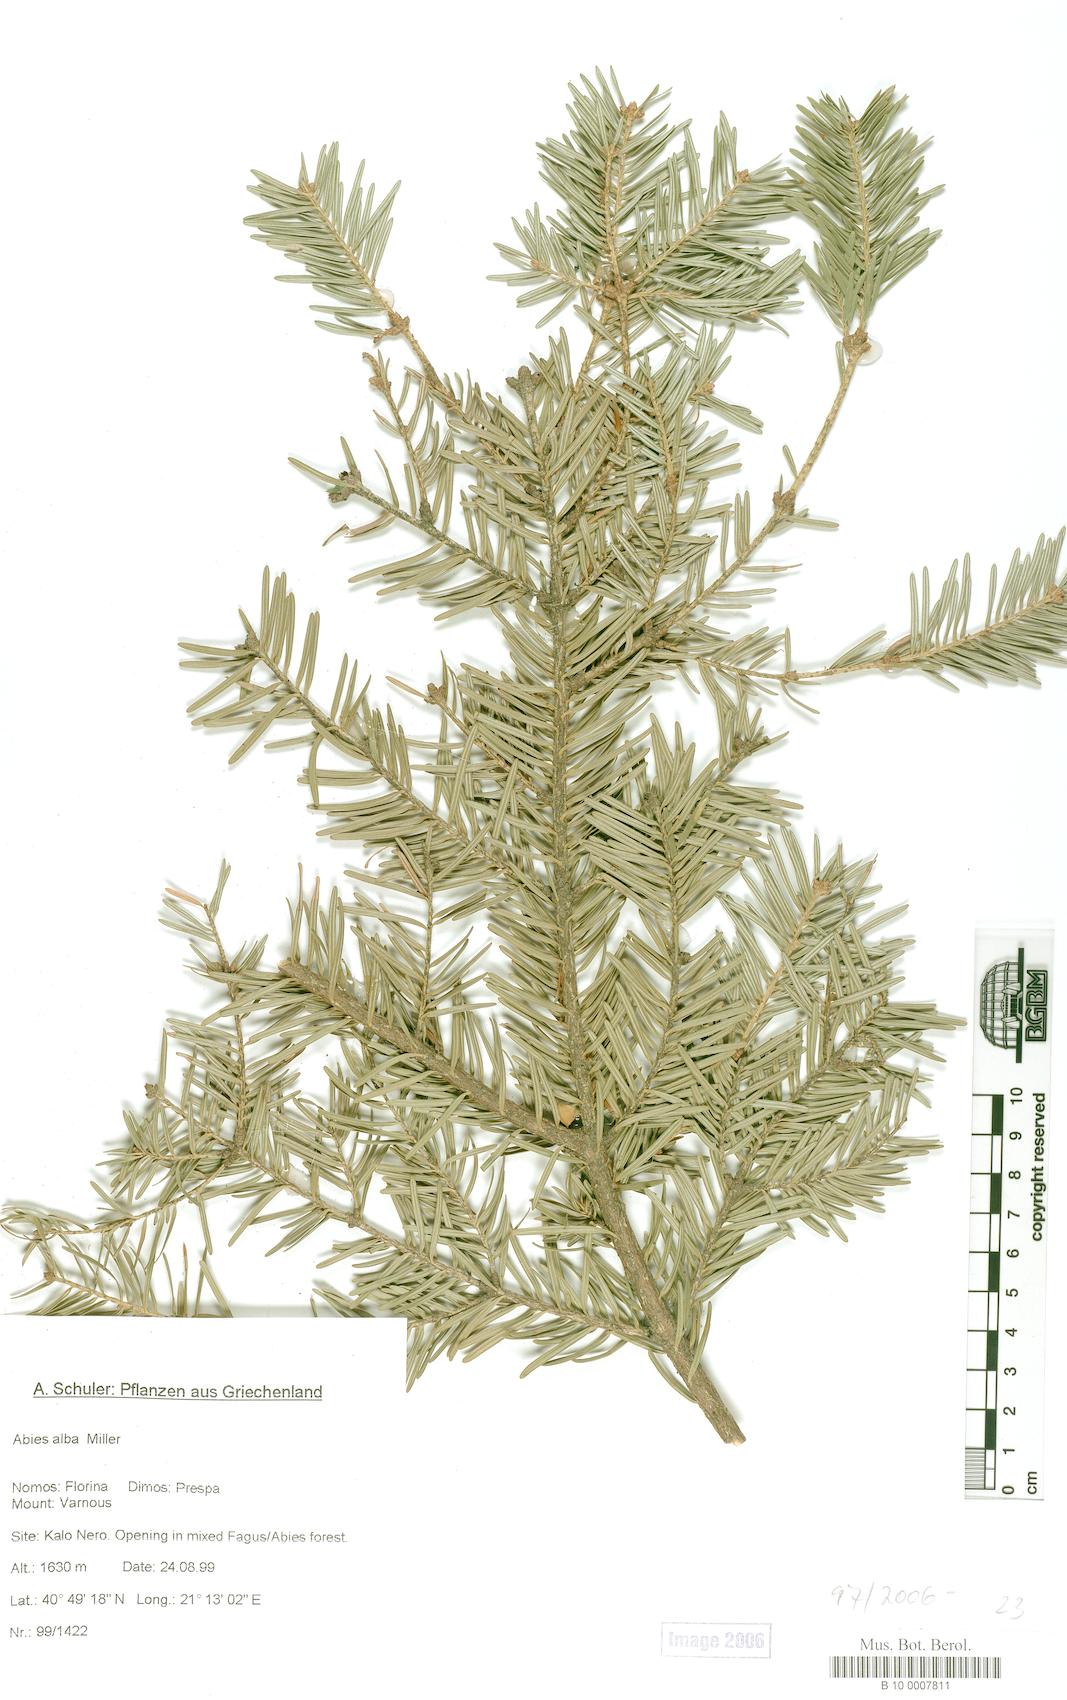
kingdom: Plantae
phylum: Tracheophyta
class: Pinopsida
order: Pinales
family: Pinaceae
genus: Abies
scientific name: Abies alba
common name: Silver fir
